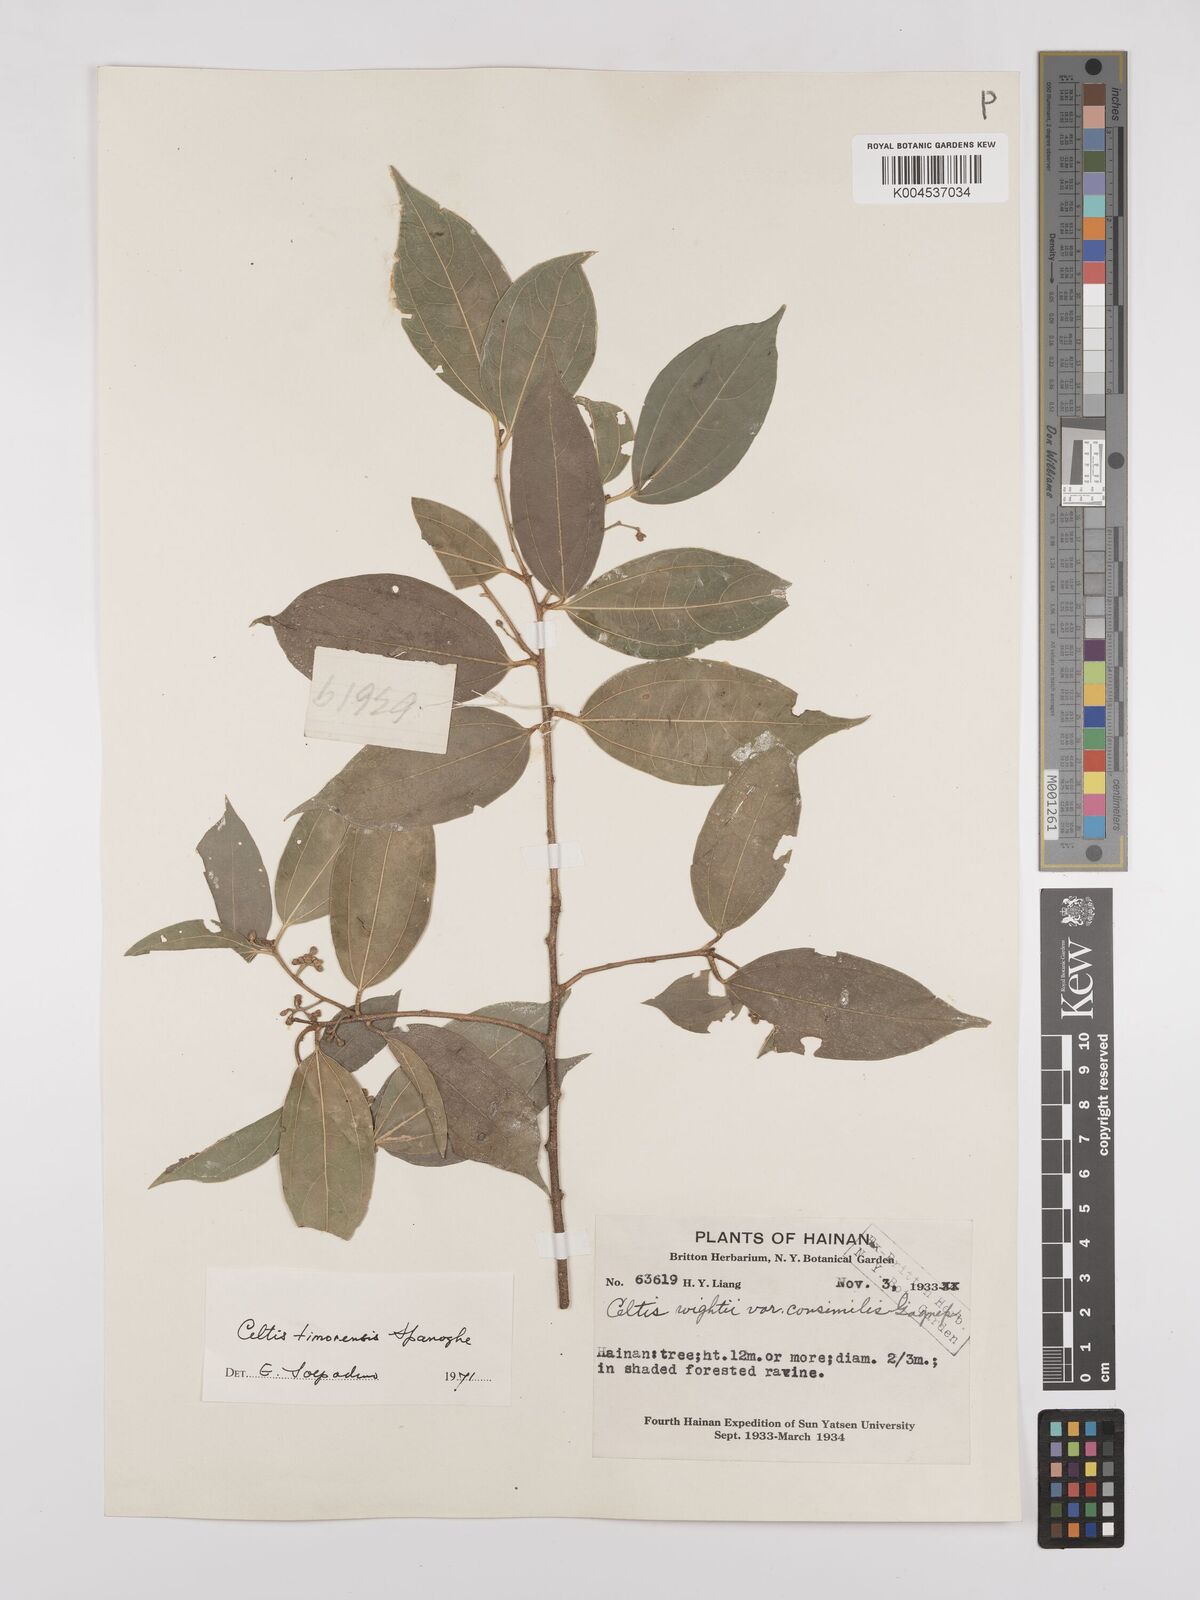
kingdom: Plantae
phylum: Tracheophyta
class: Magnoliopsida
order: Rosales
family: Cannabaceae
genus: Celtis
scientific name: Celtis timorensis
